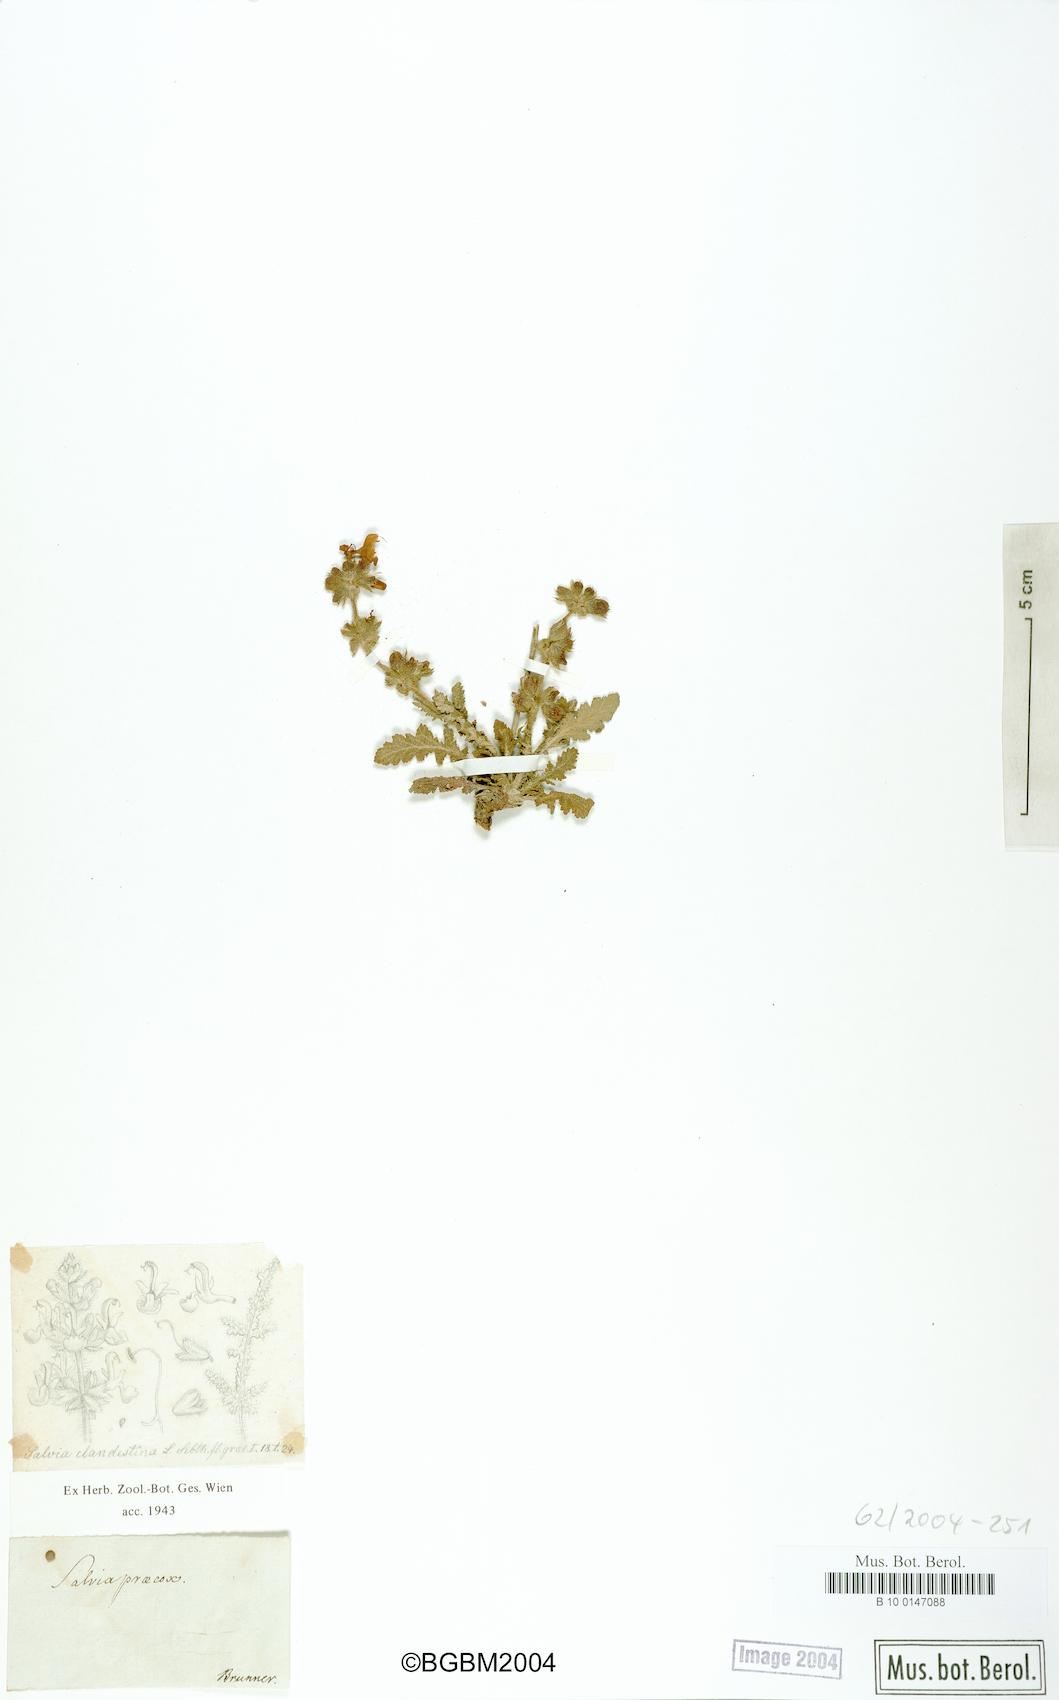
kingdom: Plantae
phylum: Tracheophyta
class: Magnoliopsida
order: Lamiales
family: Lamiaceae
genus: Salvia
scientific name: Salvia verbenaca
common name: Wild clary
